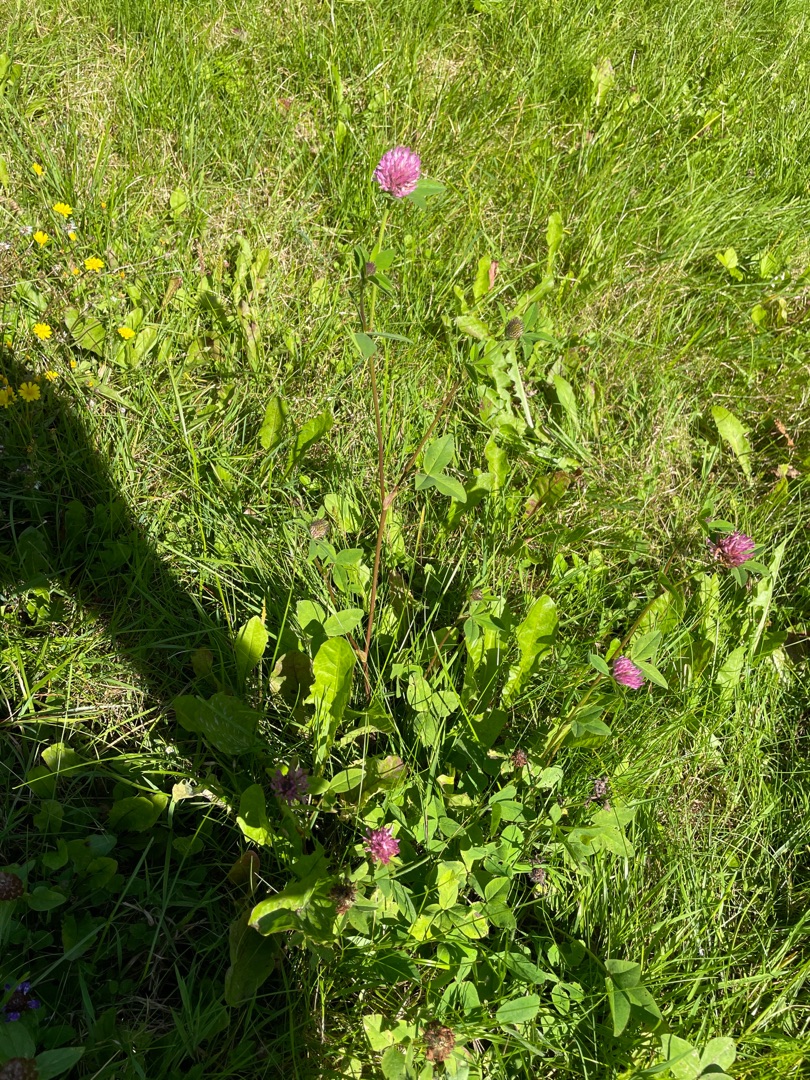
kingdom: Plantae
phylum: Tracheophyta
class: Magnoliopsida
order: Fabales
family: Fabaceae
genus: Trifolium
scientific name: Trifolium pratense
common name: Rød-kløver
